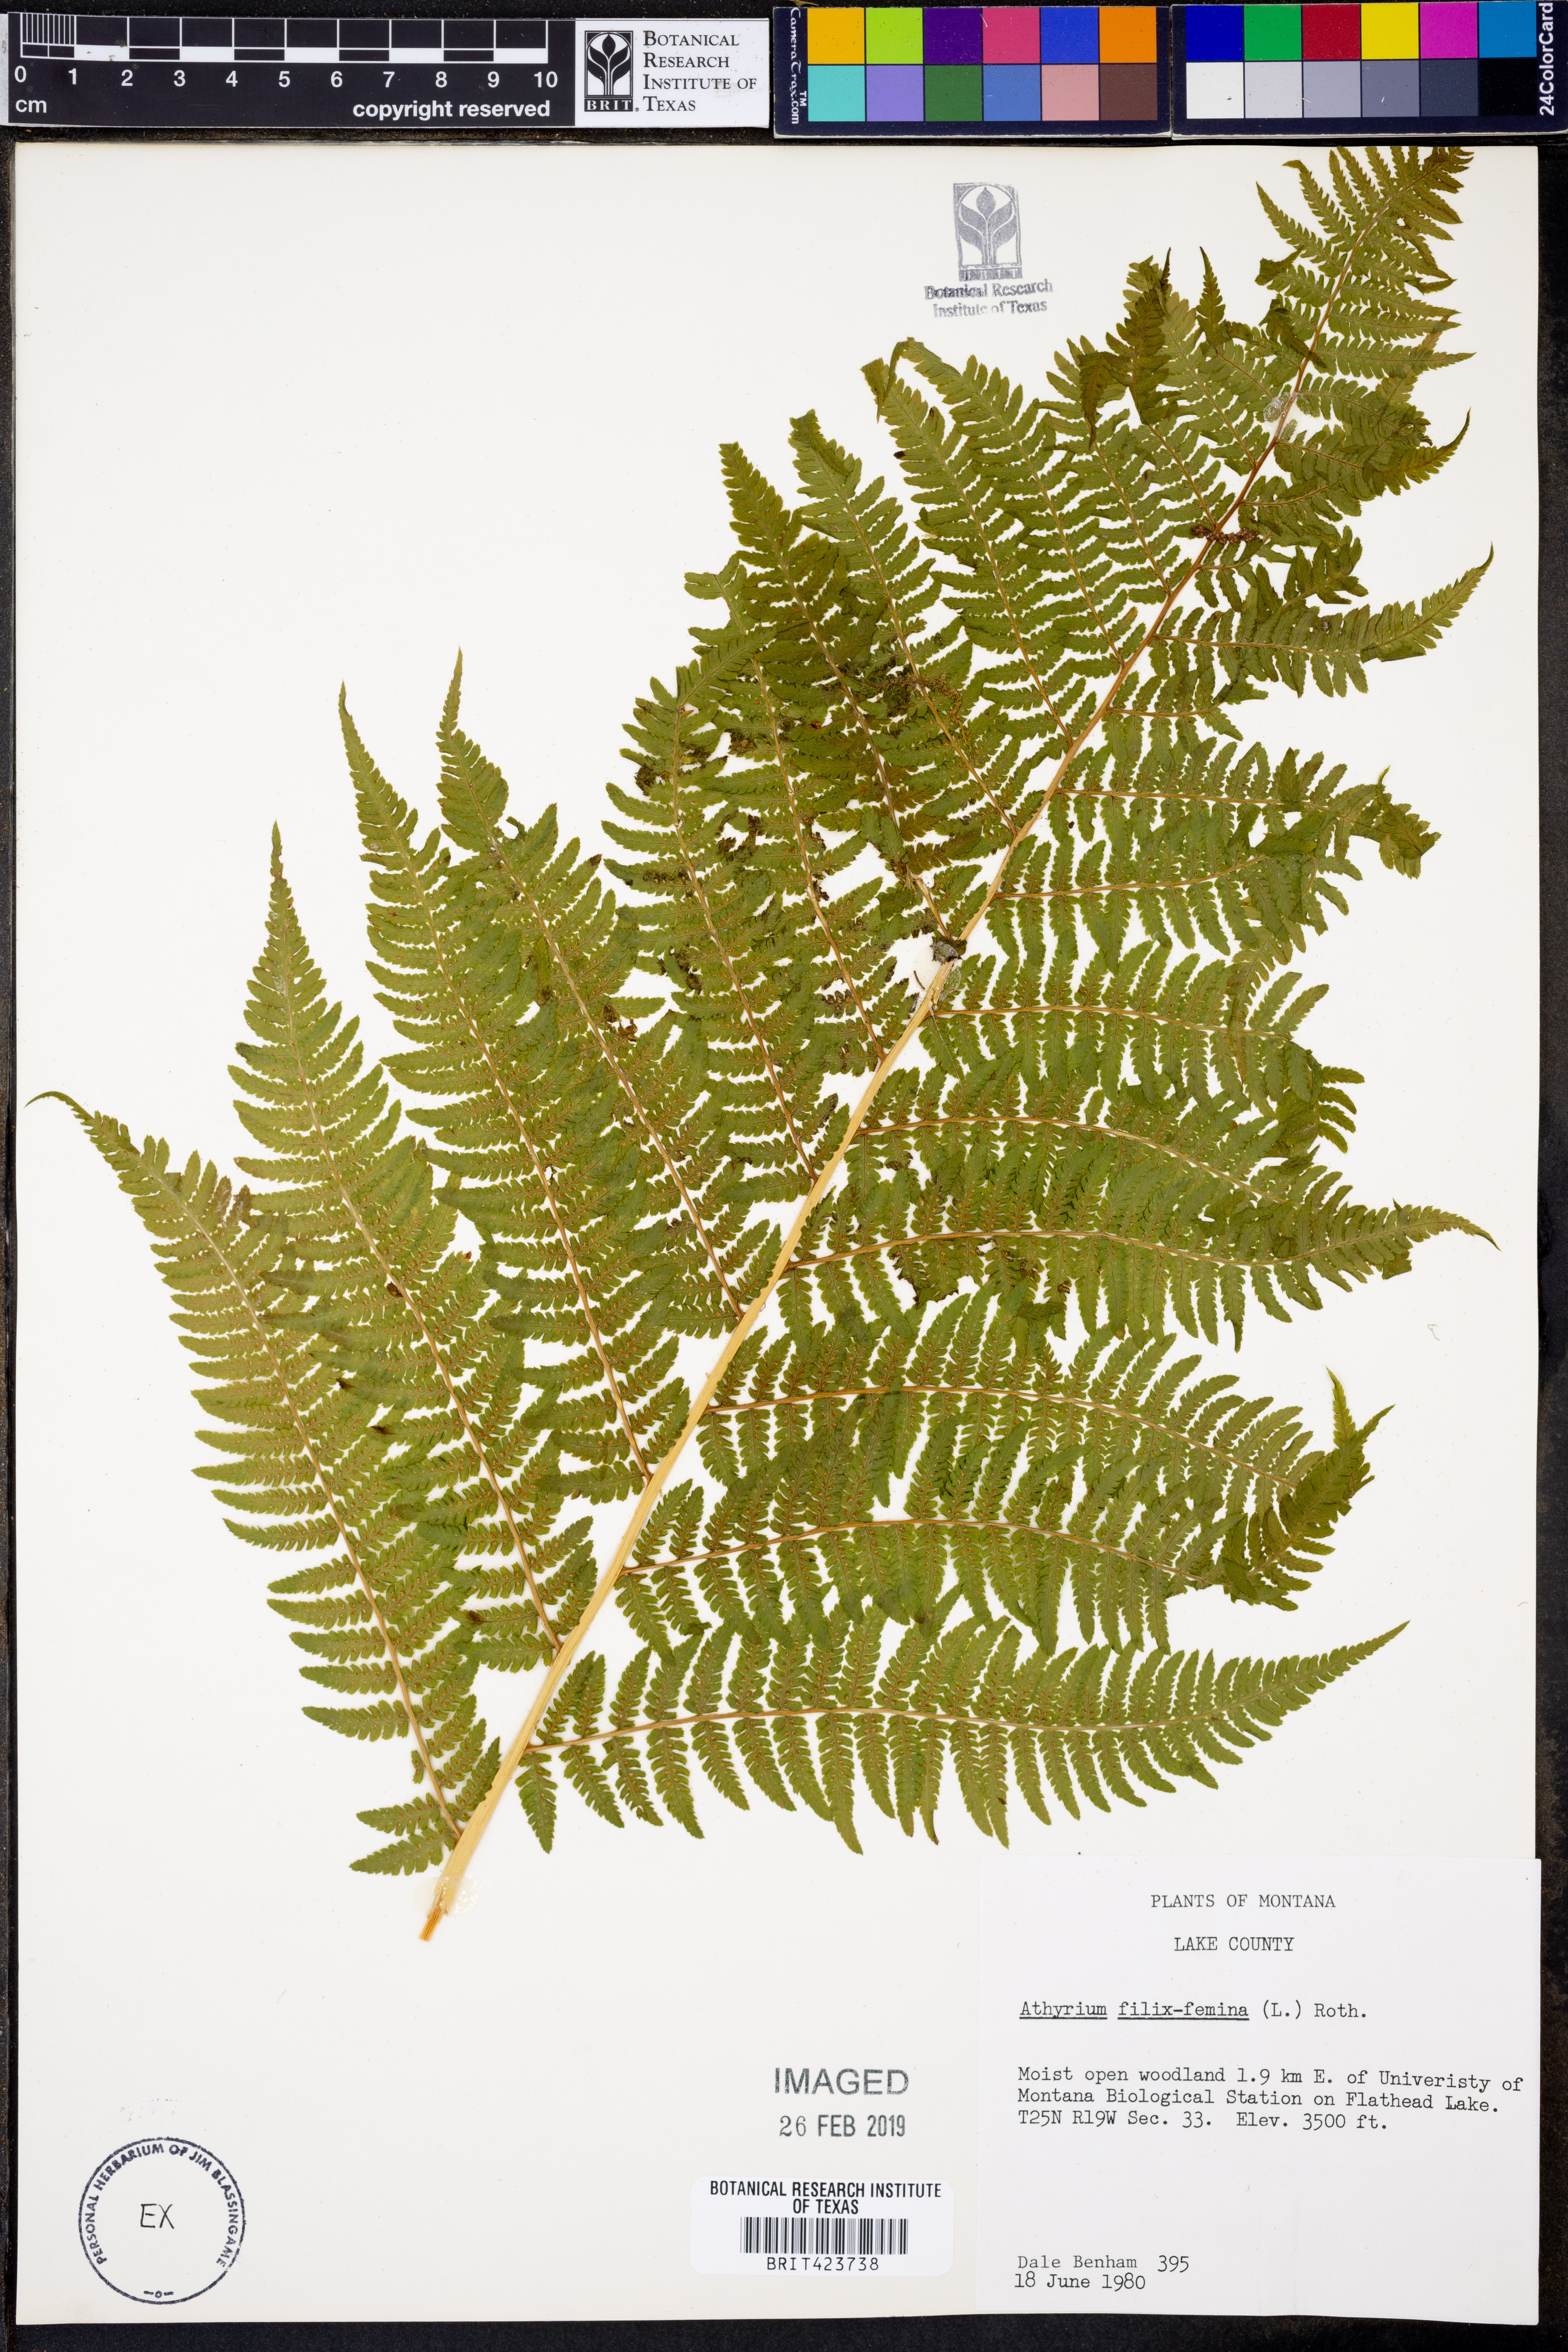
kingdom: Plantae
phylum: Tracheophyta
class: Polypodiopsida
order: Polypodiales
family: Athyriaceae
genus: Athyrium
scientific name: Athyrium filix-femina
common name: Lady fern
